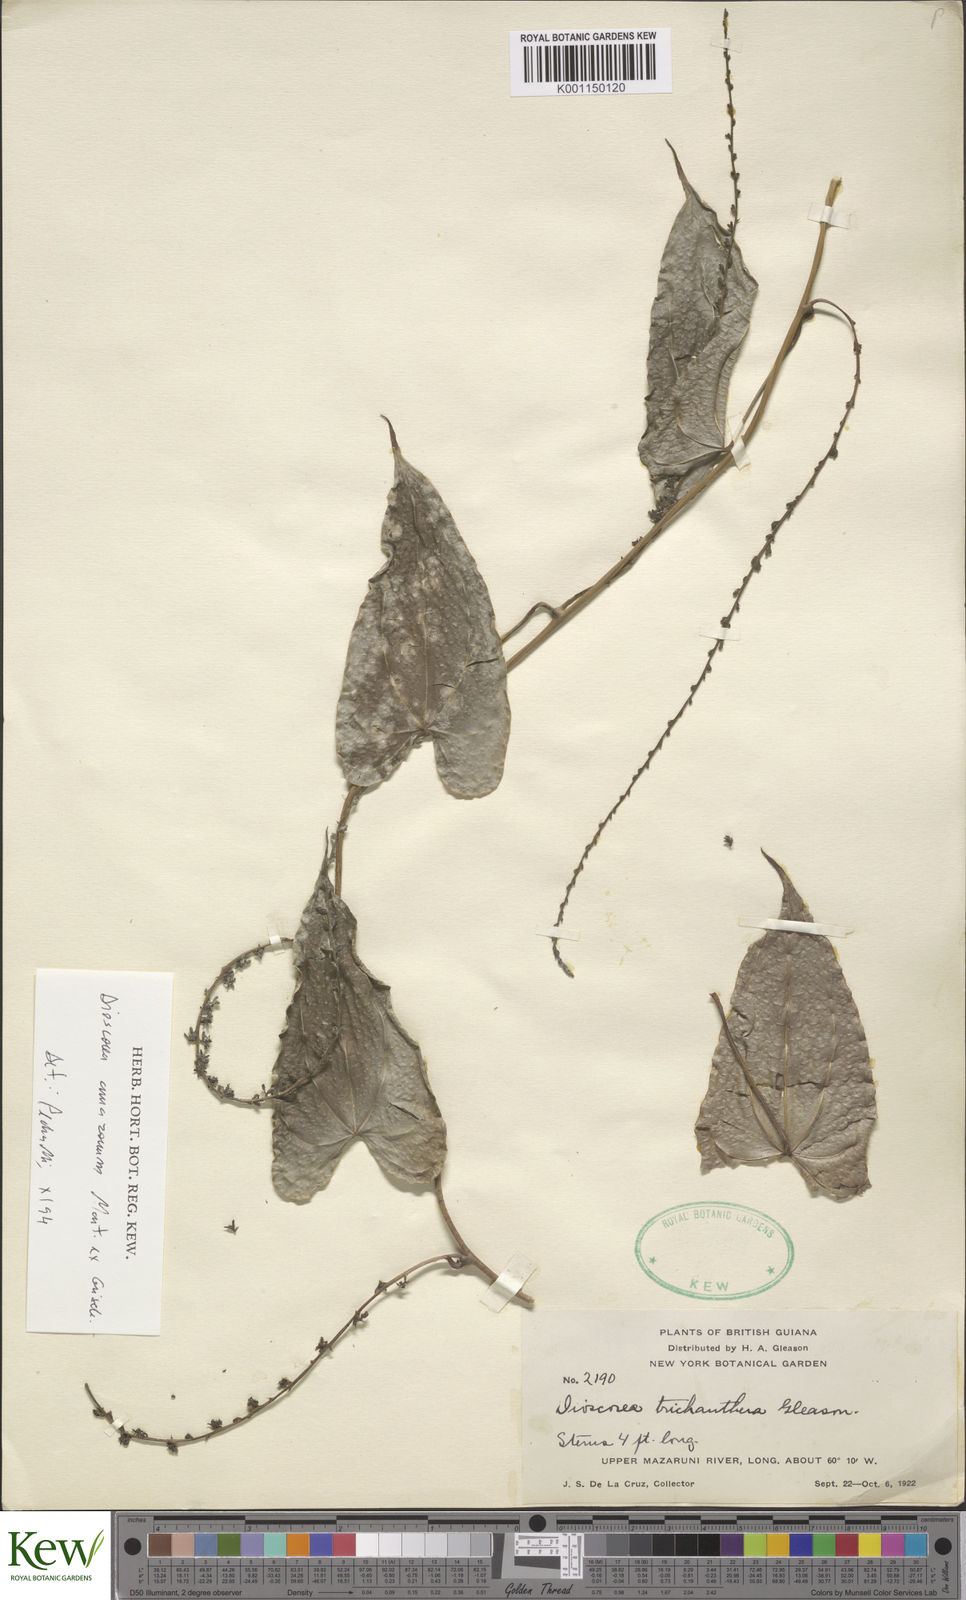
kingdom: Plantae
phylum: Tracheophyta
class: Liliopsida
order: Dioscoreales
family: Dioscoreaceae
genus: Dioscorea
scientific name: Dioscorea trichanthera
